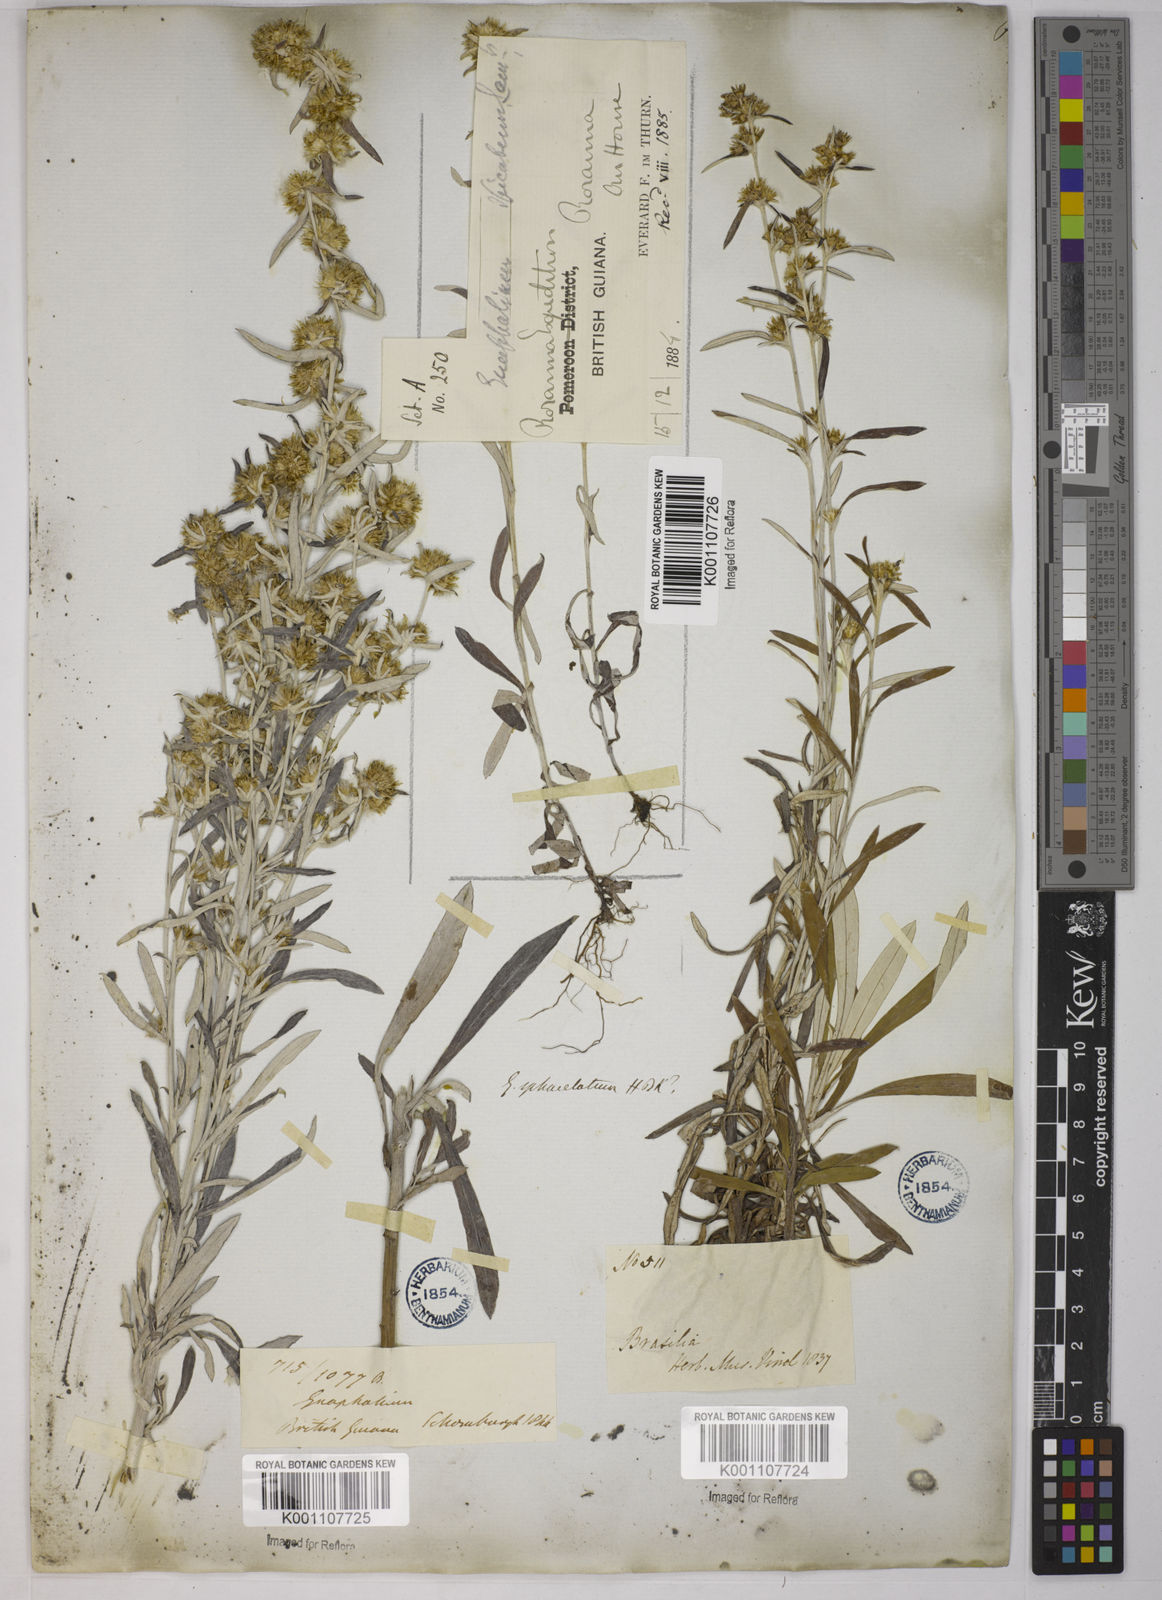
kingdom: Plantae
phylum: Tracheophyta
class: Magnoliopsida
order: Asterales
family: Asteraceae
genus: Gnaphalium
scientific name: Gnaphalium
